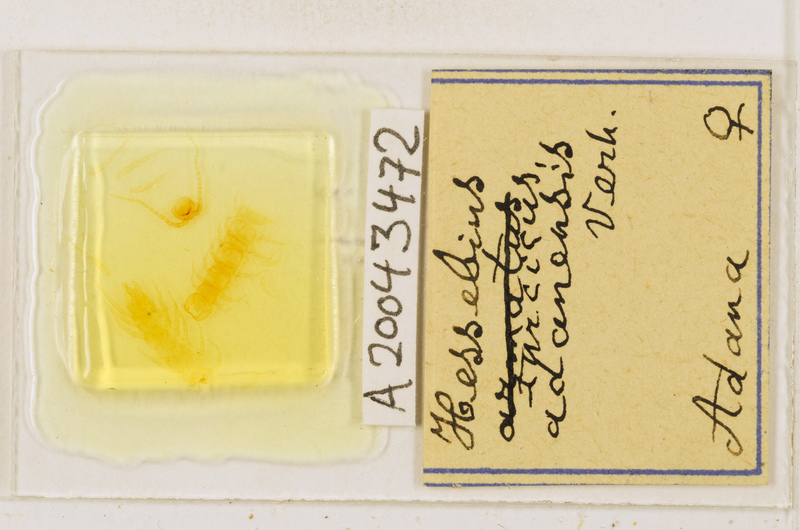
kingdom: Animalia
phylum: Arthropoda
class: Chilopoda
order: Lithobiomorpha
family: Lithobiidae
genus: Hessebius
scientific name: Hessebius
